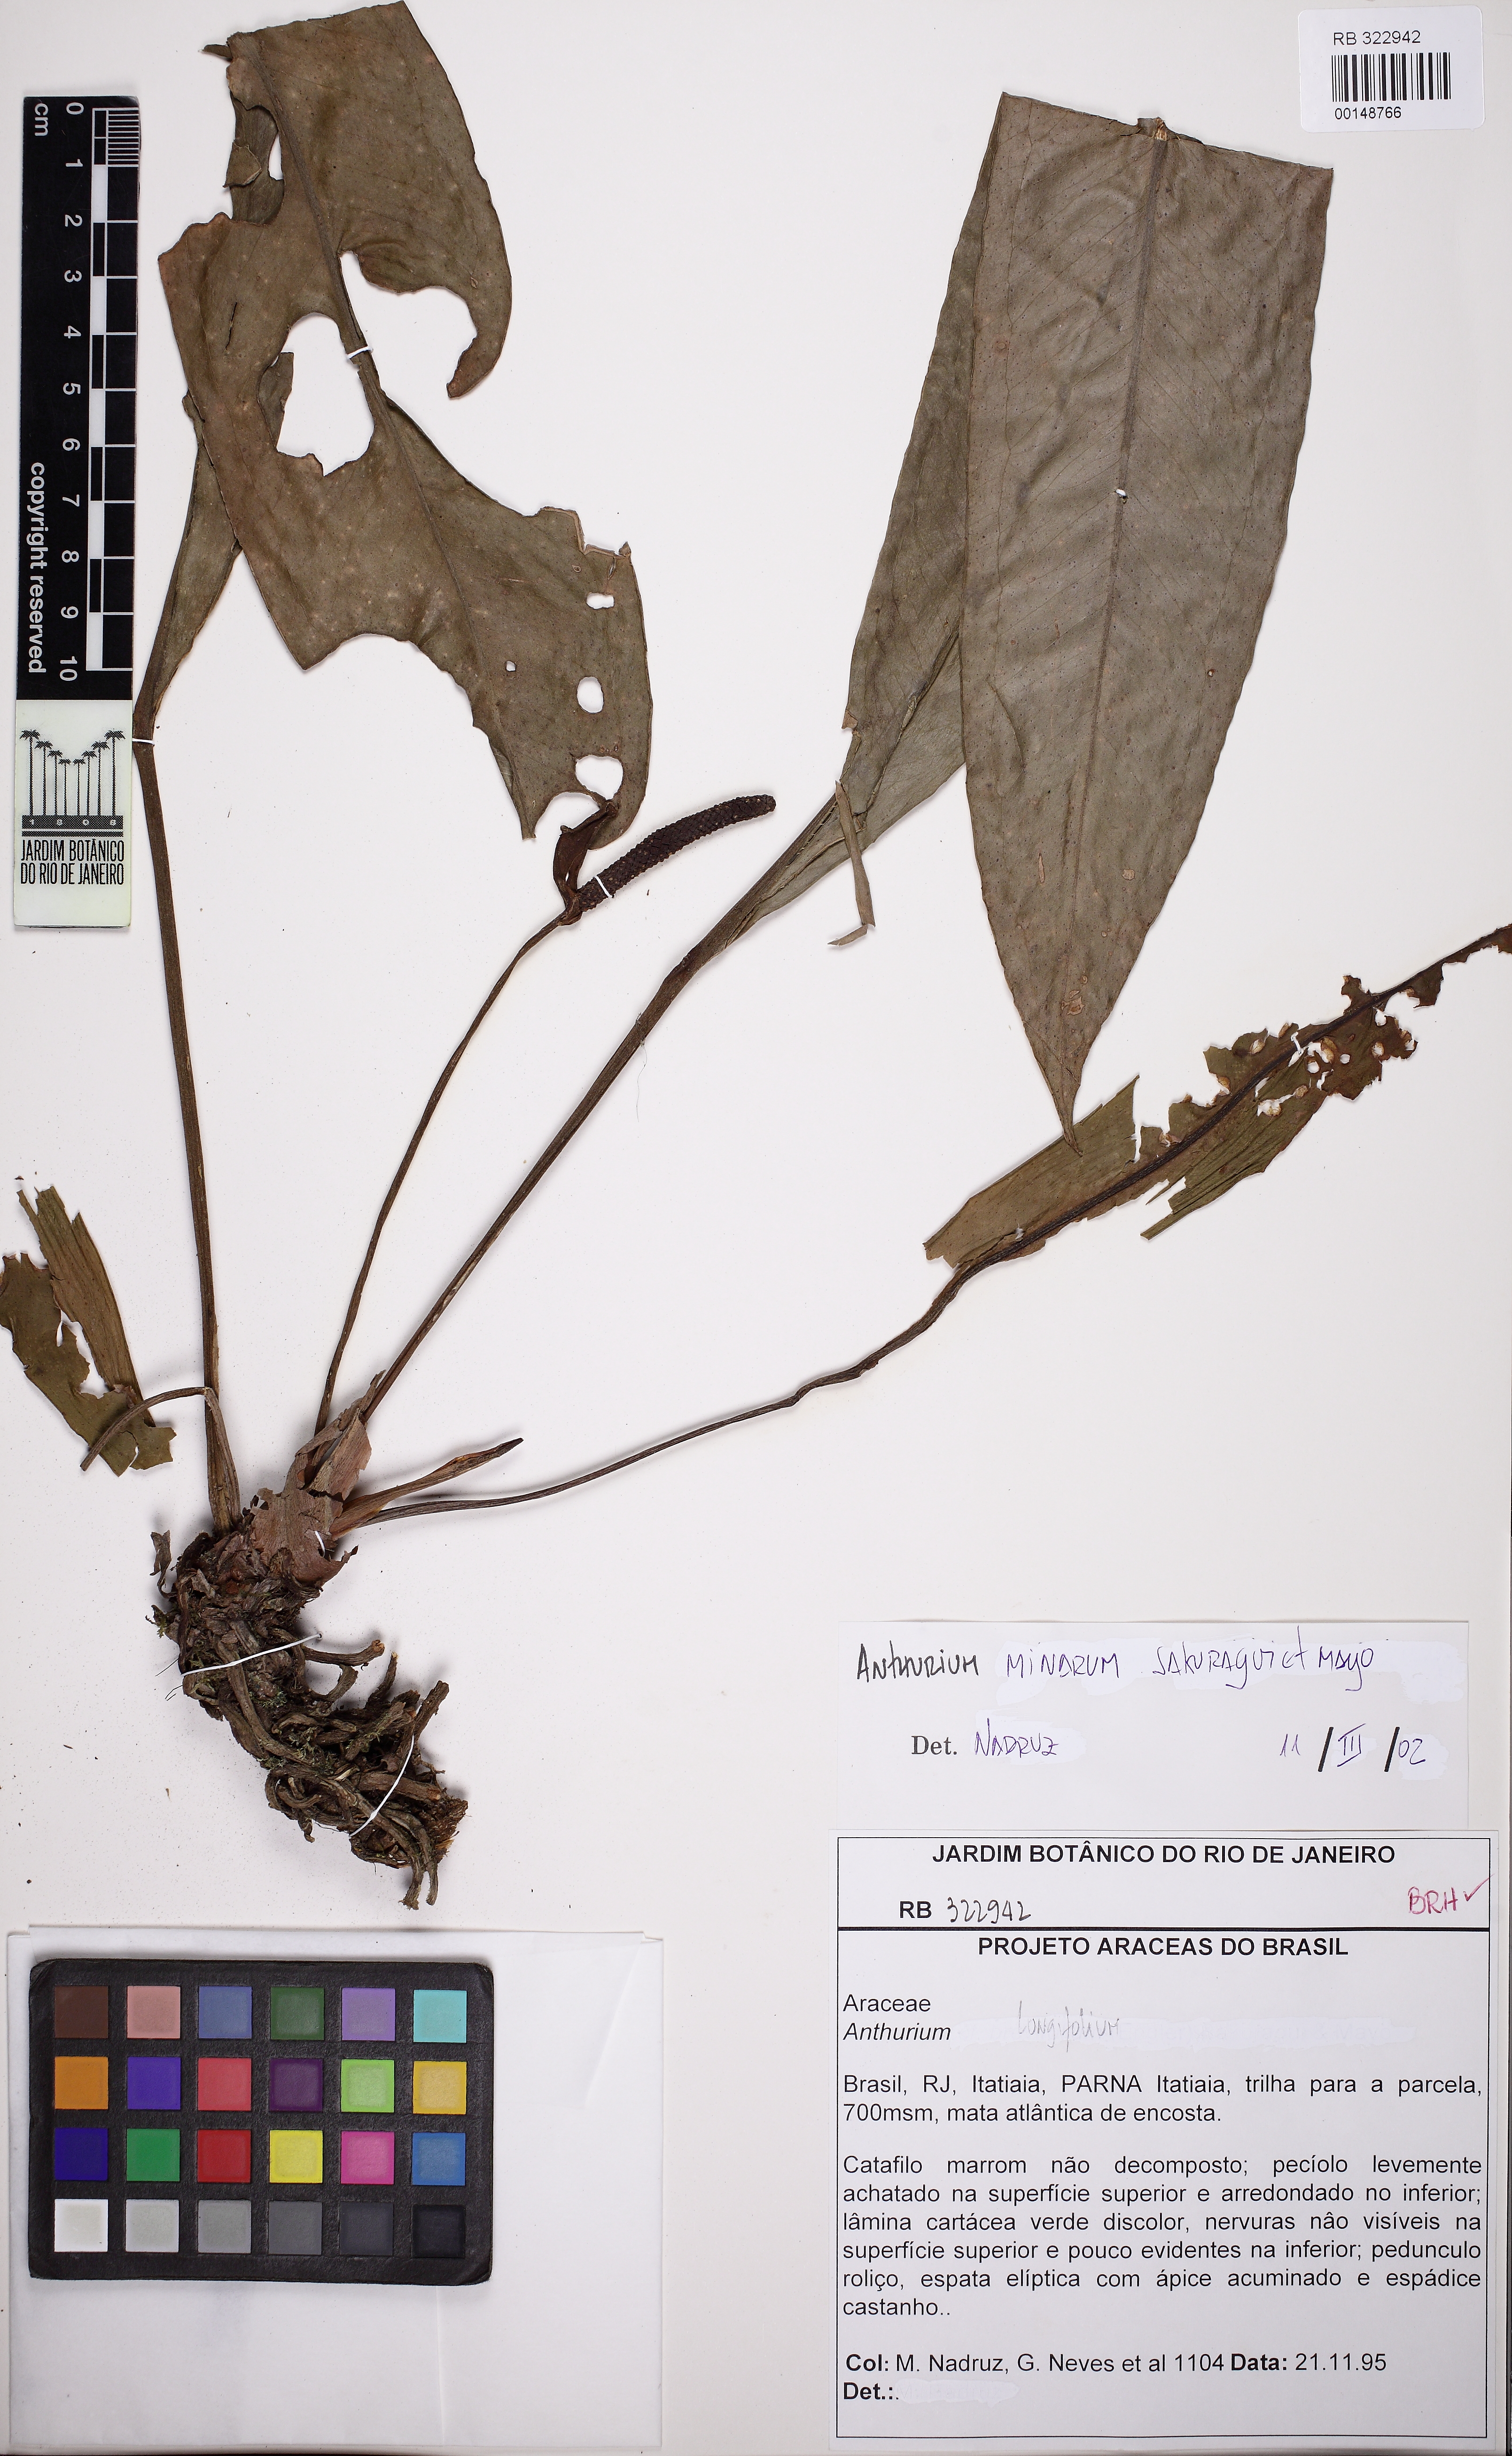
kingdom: Plantae
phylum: Tracheophyta
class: Liliopsida
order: Alismatales
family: Araceae
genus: Anthurium
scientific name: Anthurium minarum
